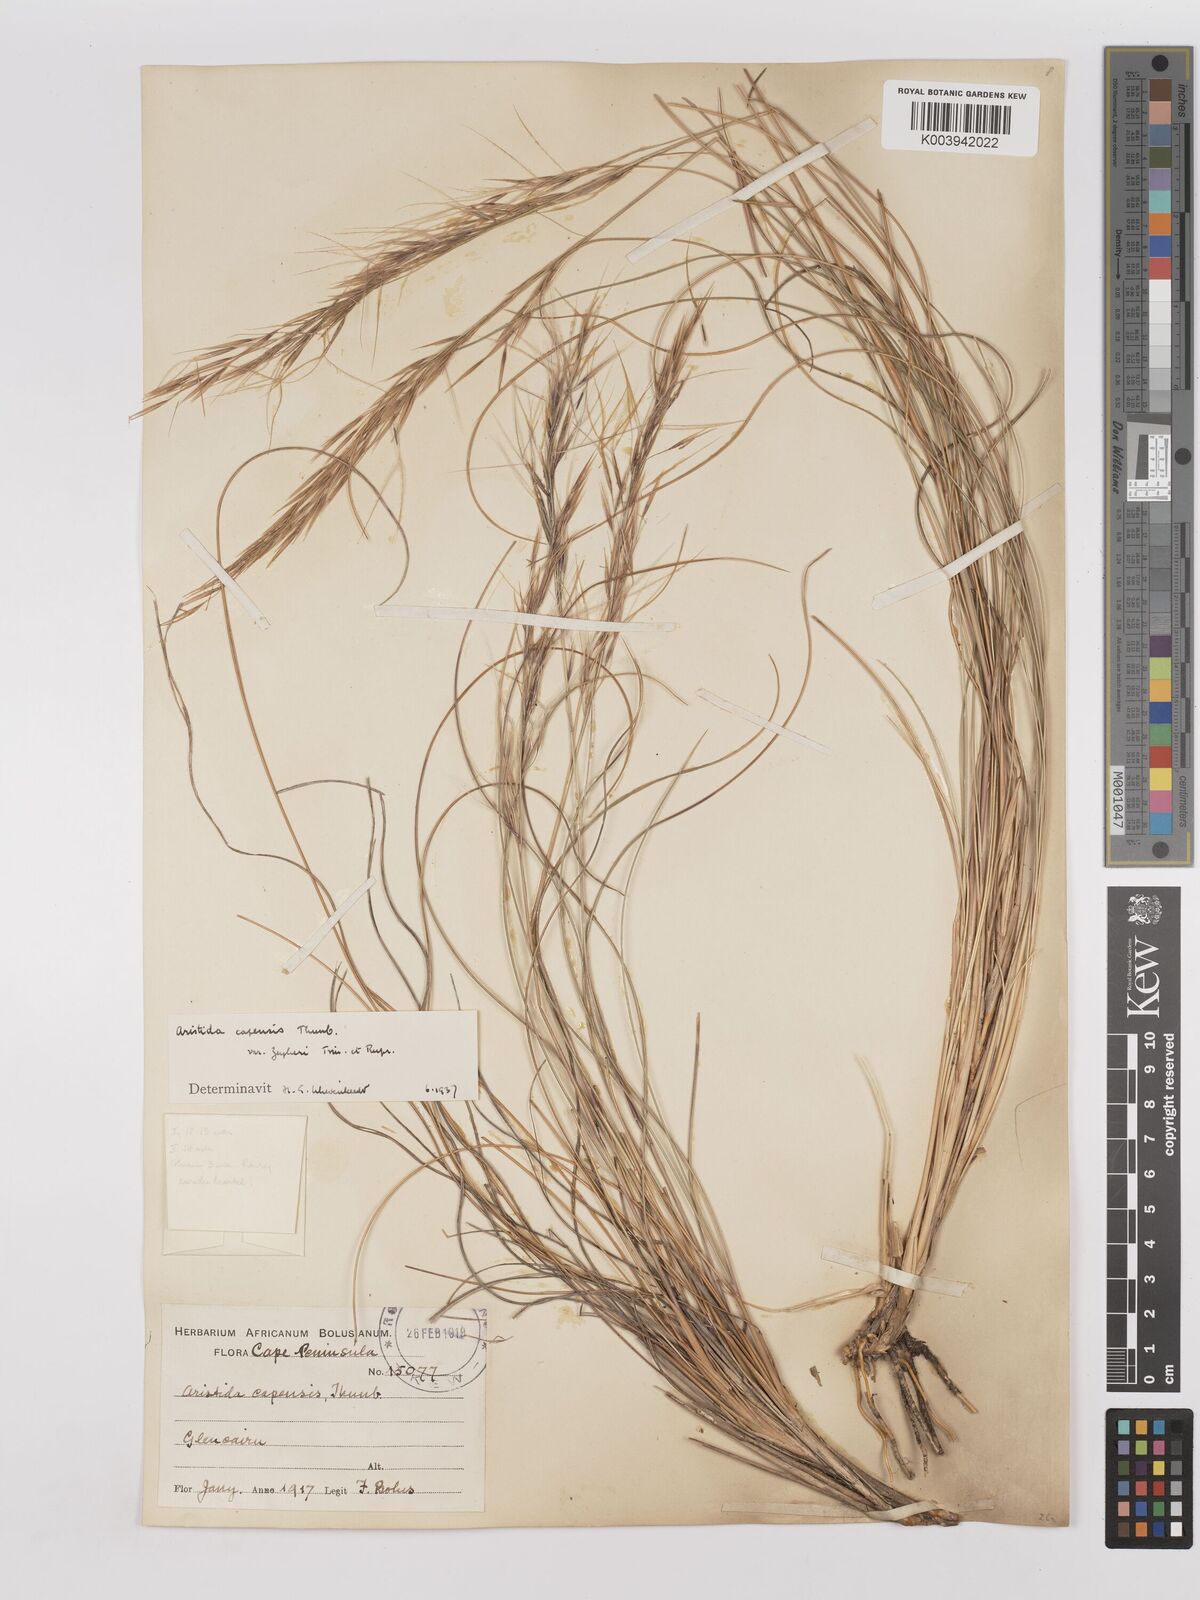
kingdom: Plantae
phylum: Tracheophyta
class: Liliopsida
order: Poales
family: Poaceae
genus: Stipagrostis
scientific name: Stipagrostis zeyheri
